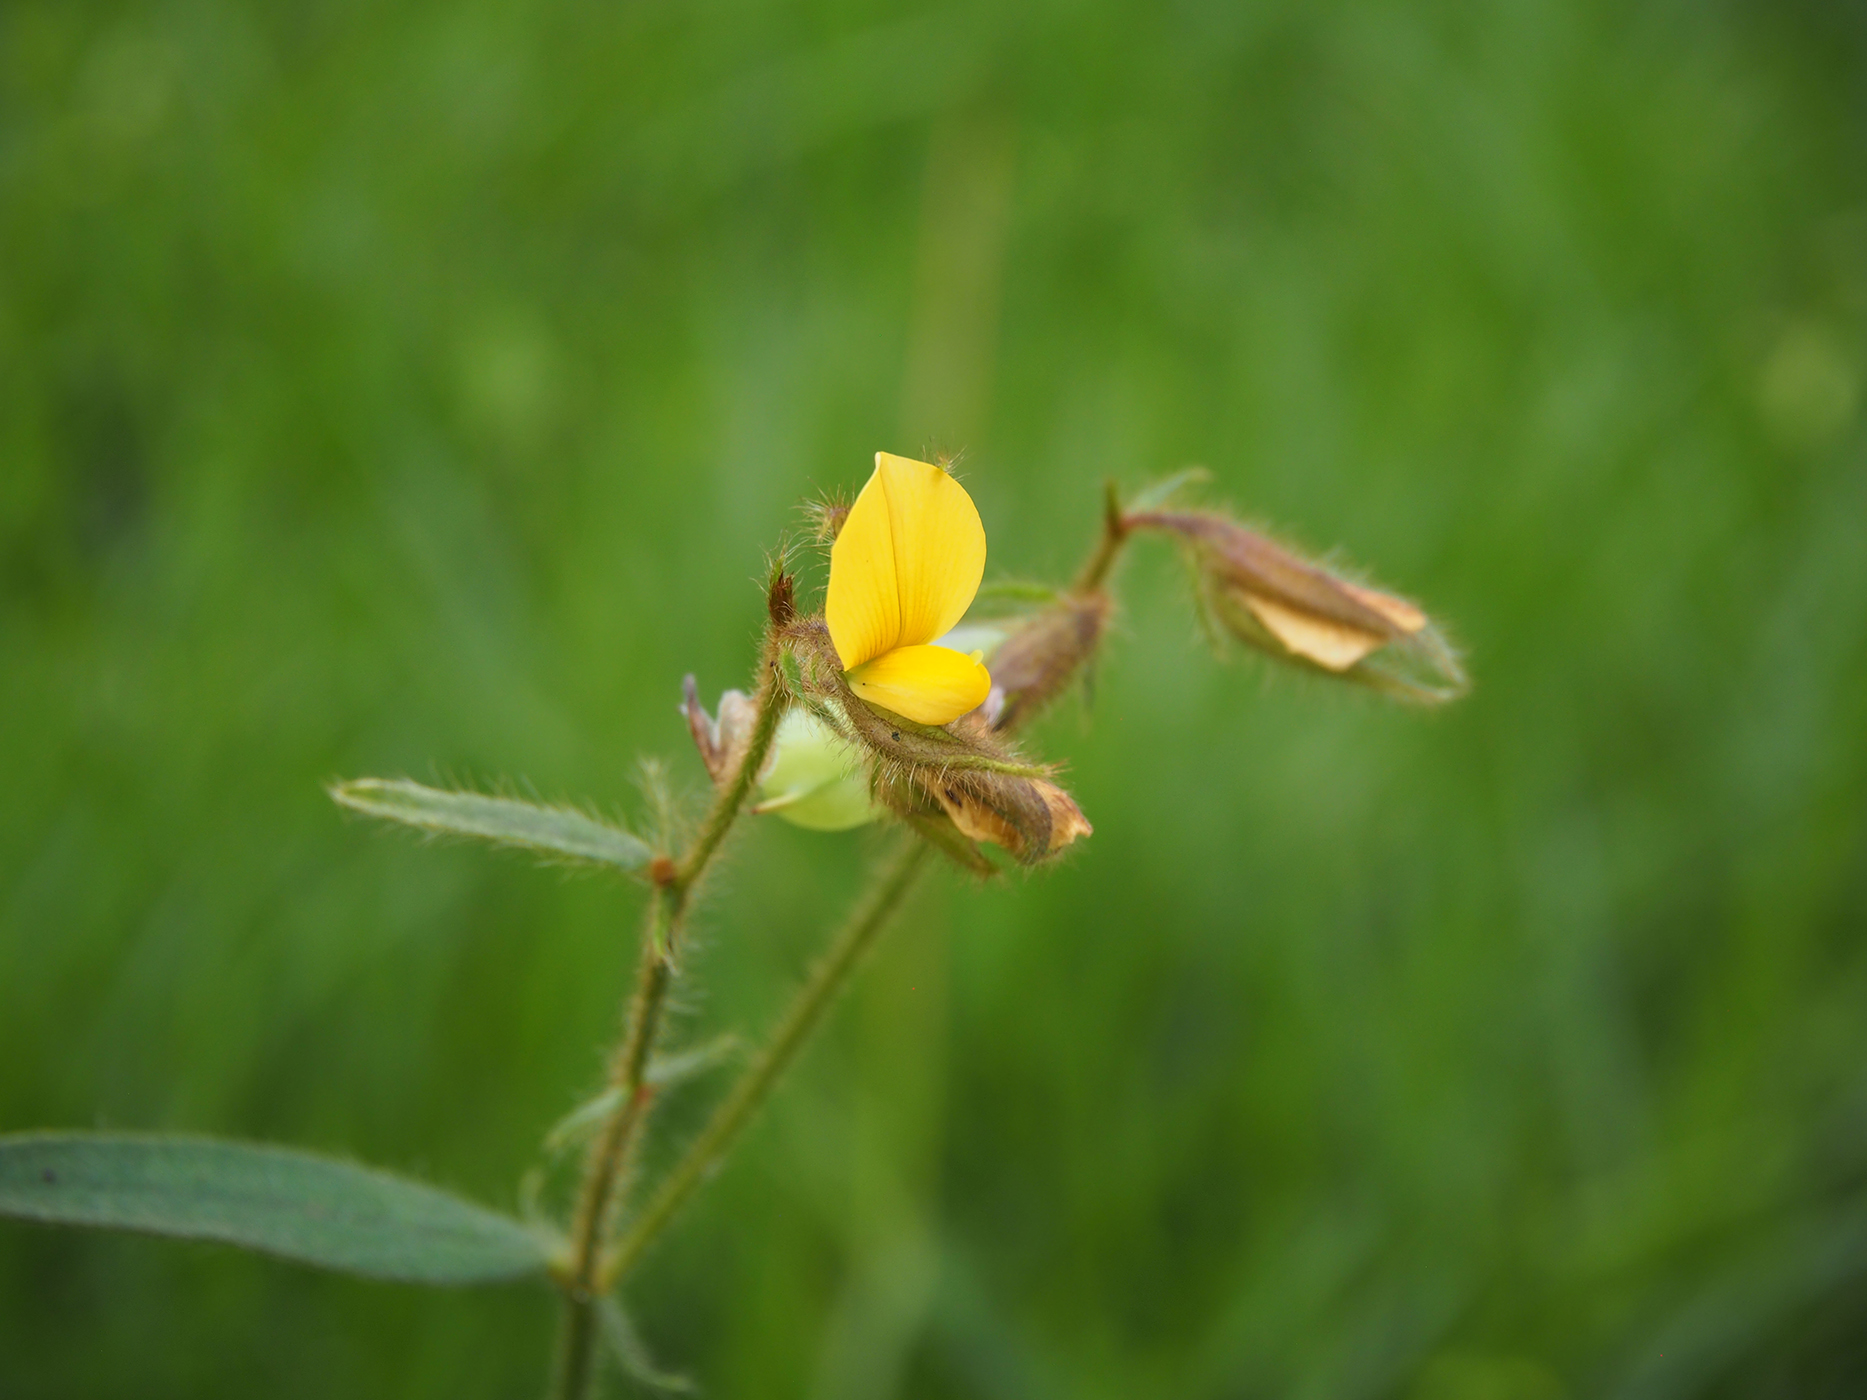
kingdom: Plantae
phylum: Tracheophyta
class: Magnoliopsida
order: Fabales
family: Fabaceae
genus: Crotalaria
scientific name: Crotalaria lejoloba
